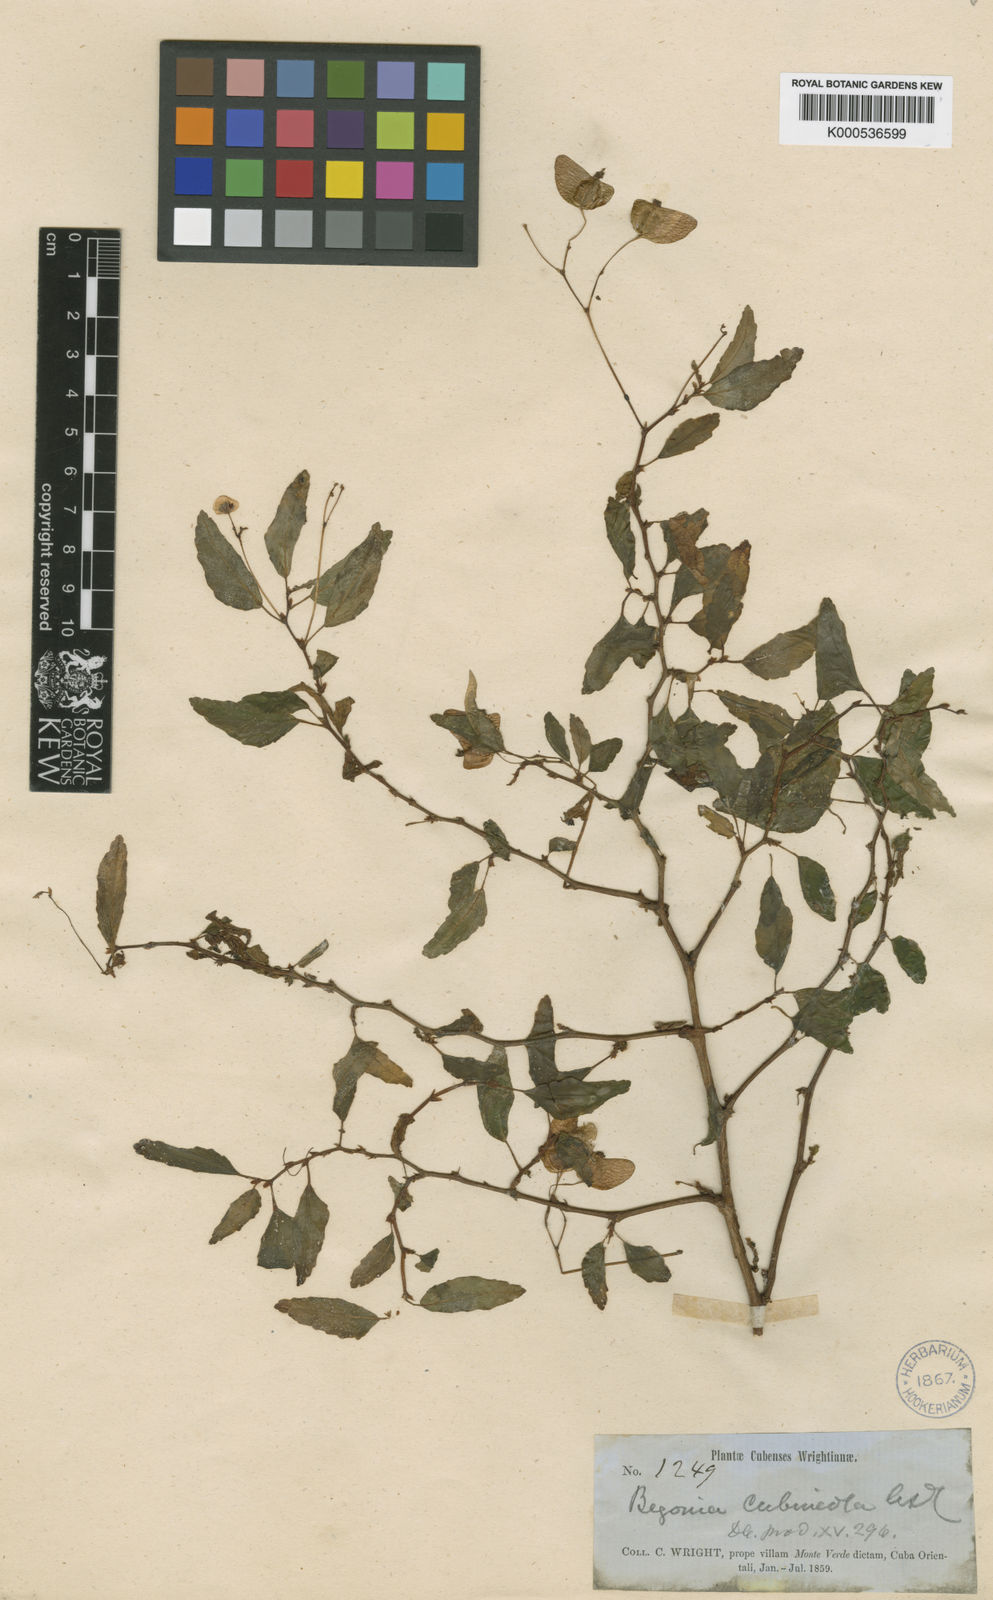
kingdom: Plantae
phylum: Tracheophyta
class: Magnoliopsida
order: Cucurbitales
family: Begoniaceae
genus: Begonia
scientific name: Begonia cubensis
